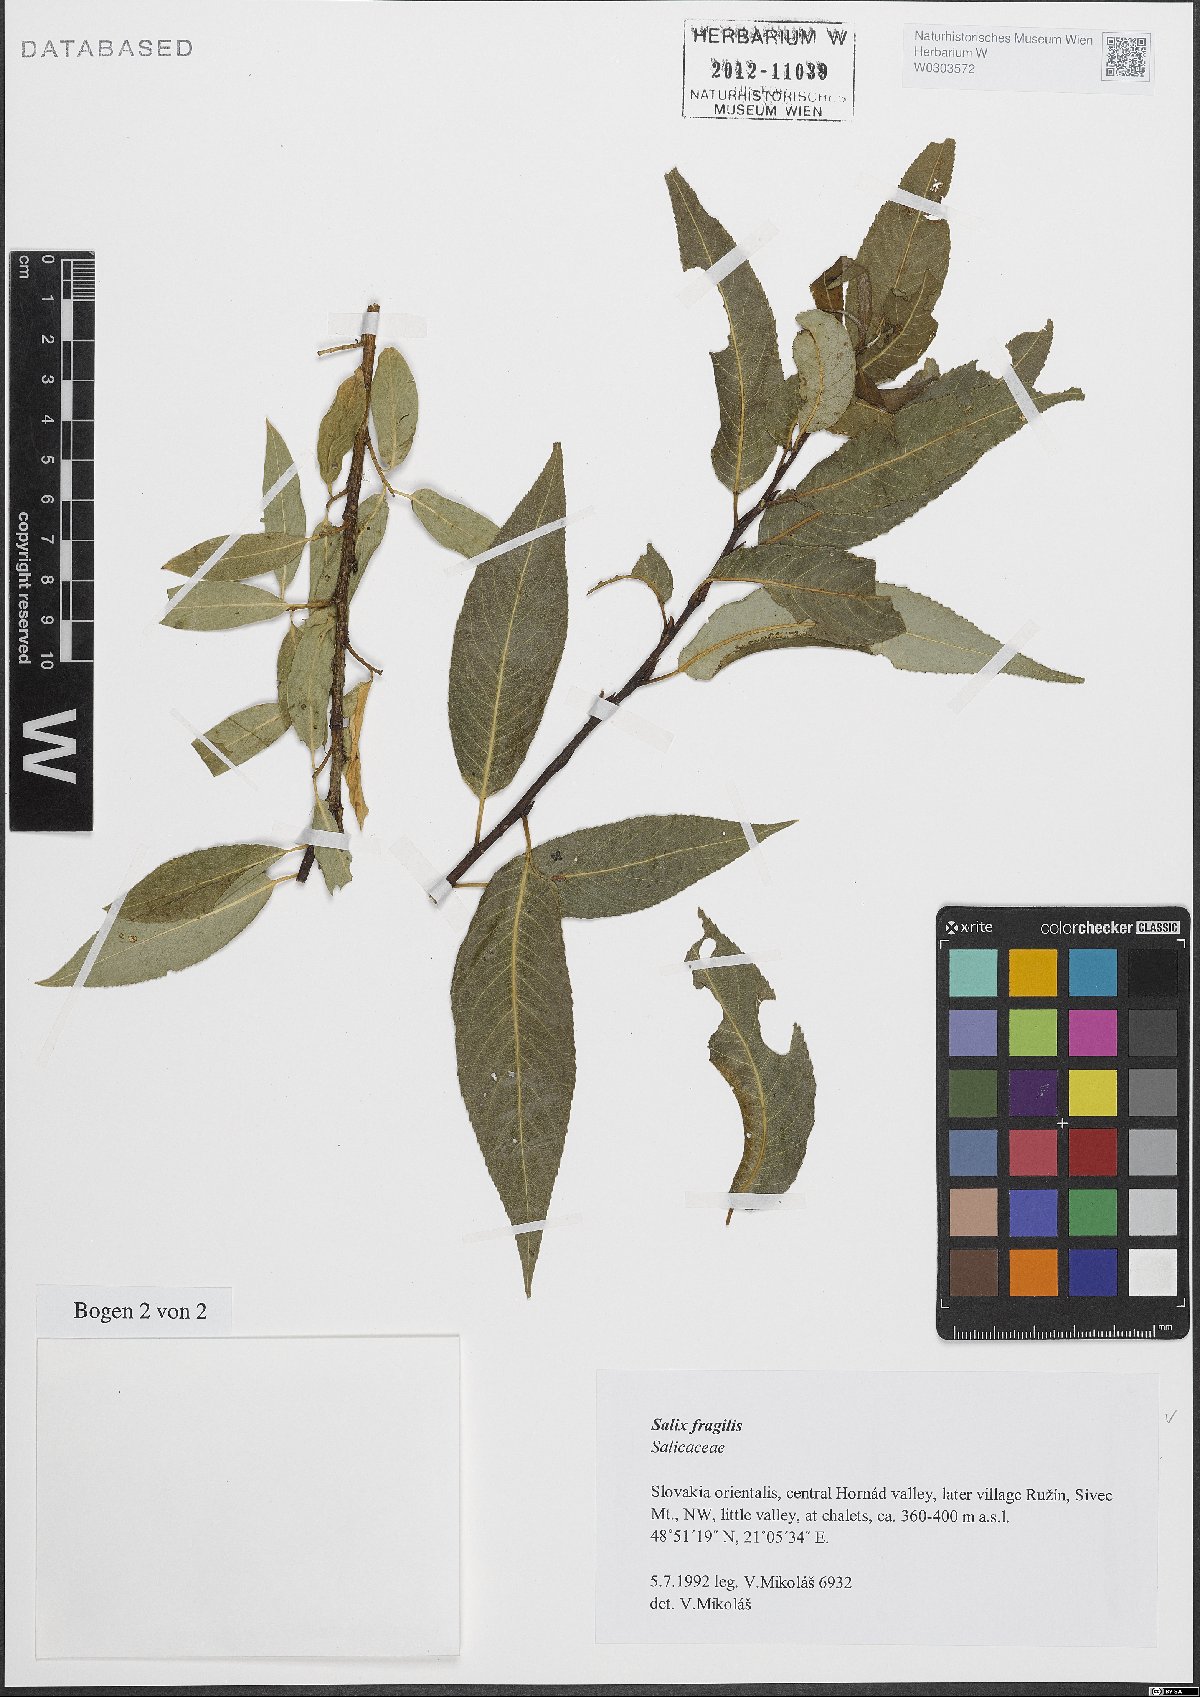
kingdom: Plantae
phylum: Tracheophyta
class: Magnoliopsida
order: Malpighiales
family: Salicaceae
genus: Salix
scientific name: Salix fragilis
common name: Crack willow
